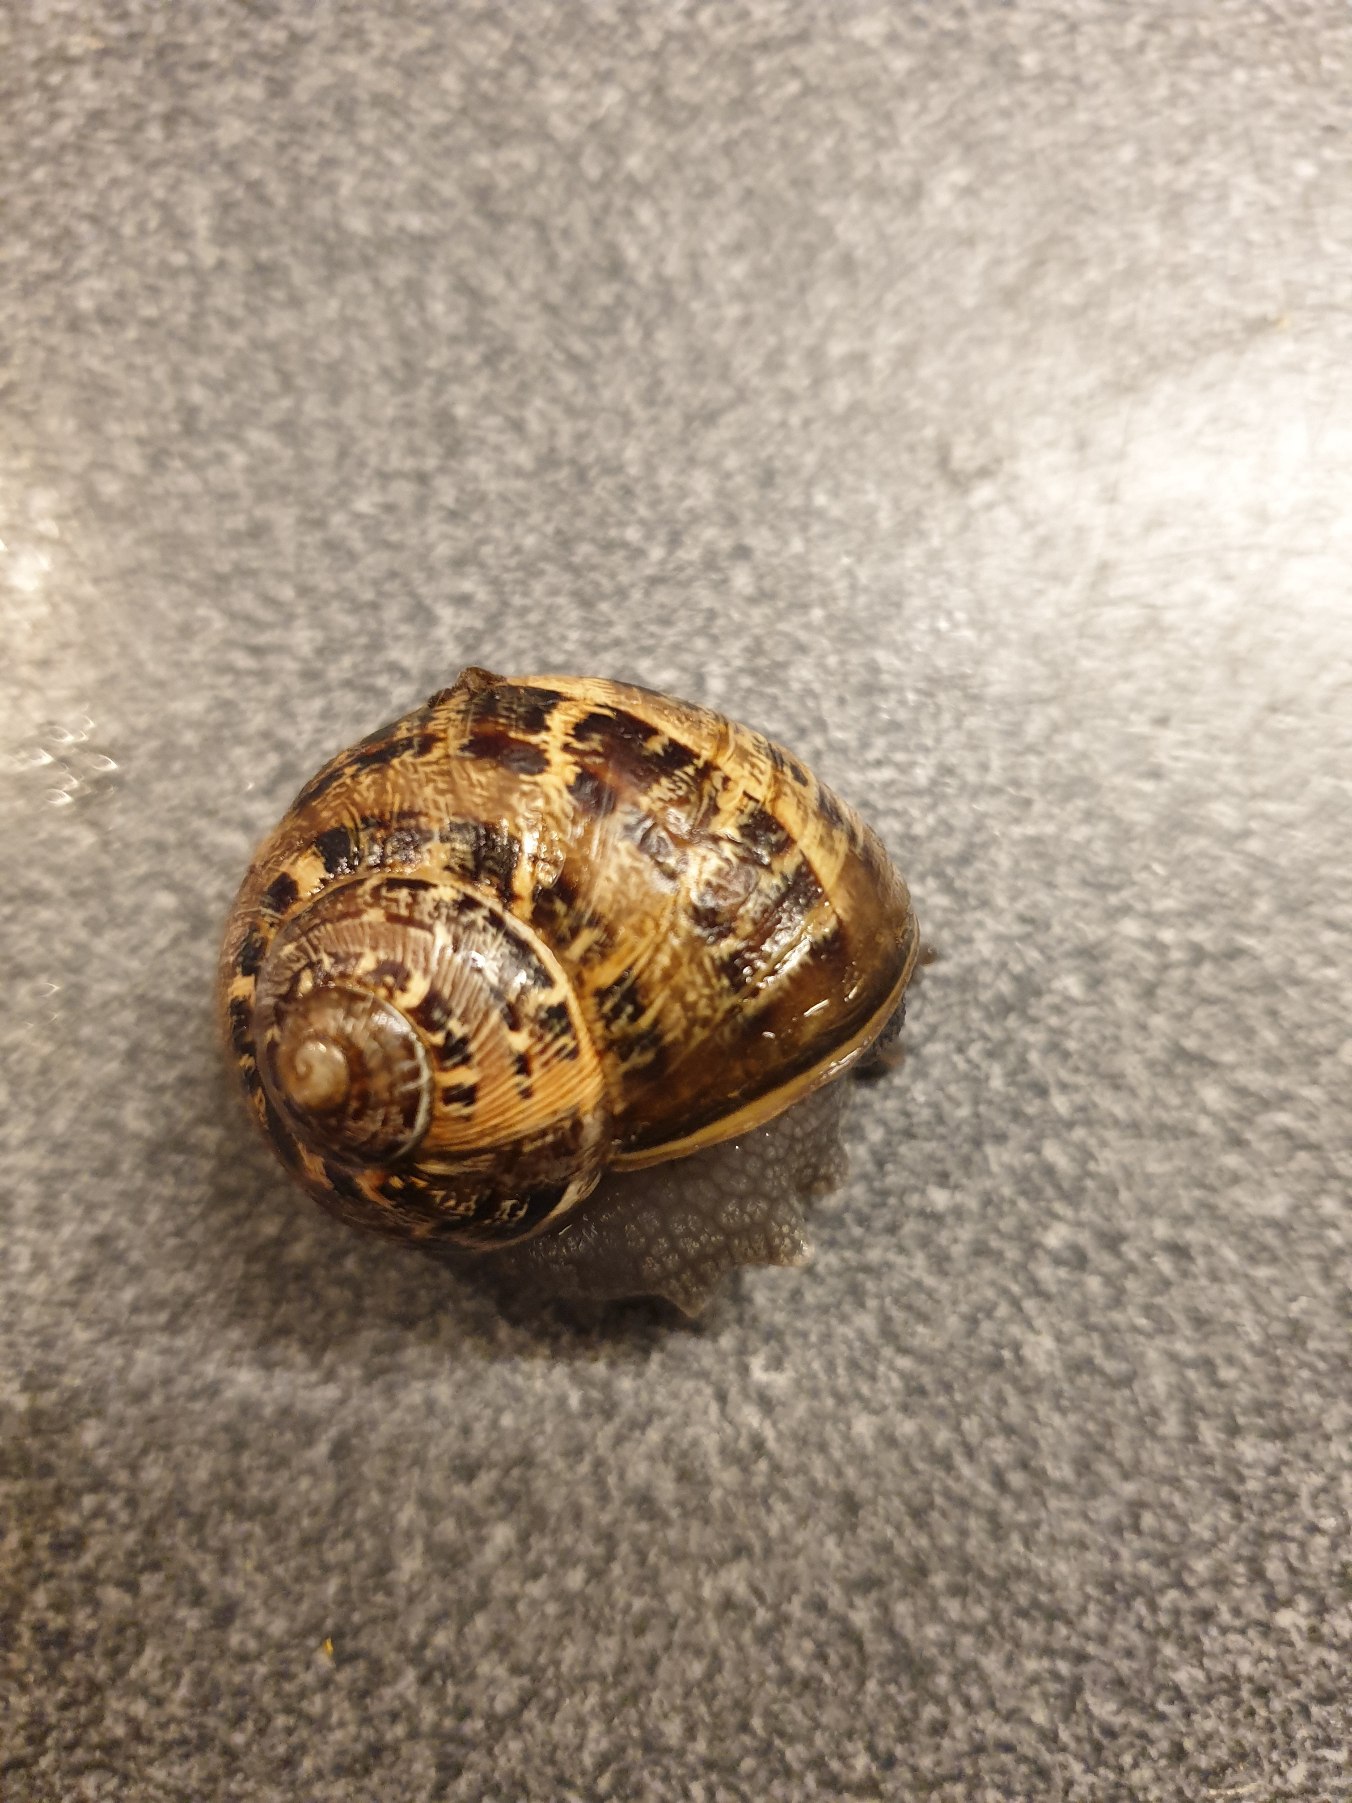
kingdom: Animalia
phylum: Mollusca
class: Gastropoda
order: Stylommatophora
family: Helicidae
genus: Cornu
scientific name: Cornu aspersum
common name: Plettet voldsnegl
